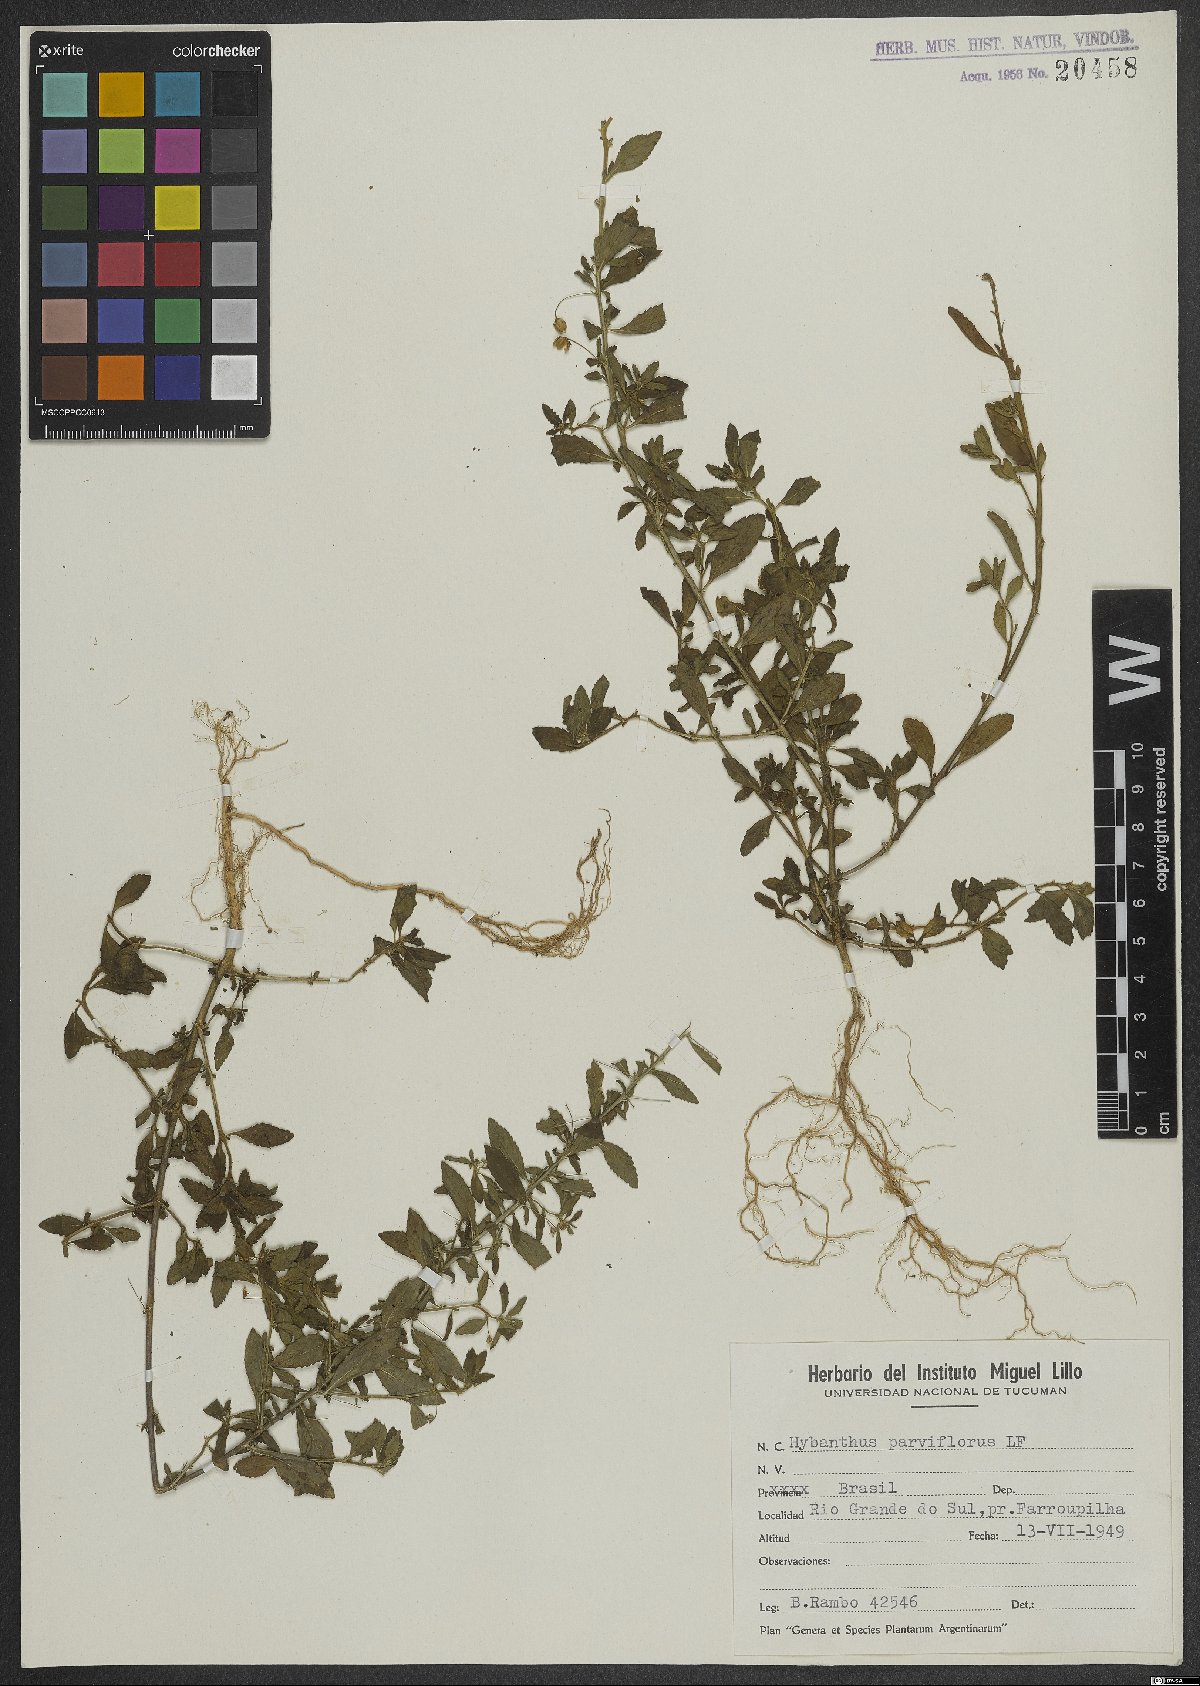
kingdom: Plantae
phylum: Tracheophyta
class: Magnoliopsida
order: Malpighiales
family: Violaceae
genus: Pombalia
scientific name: Pombalia parviflora
